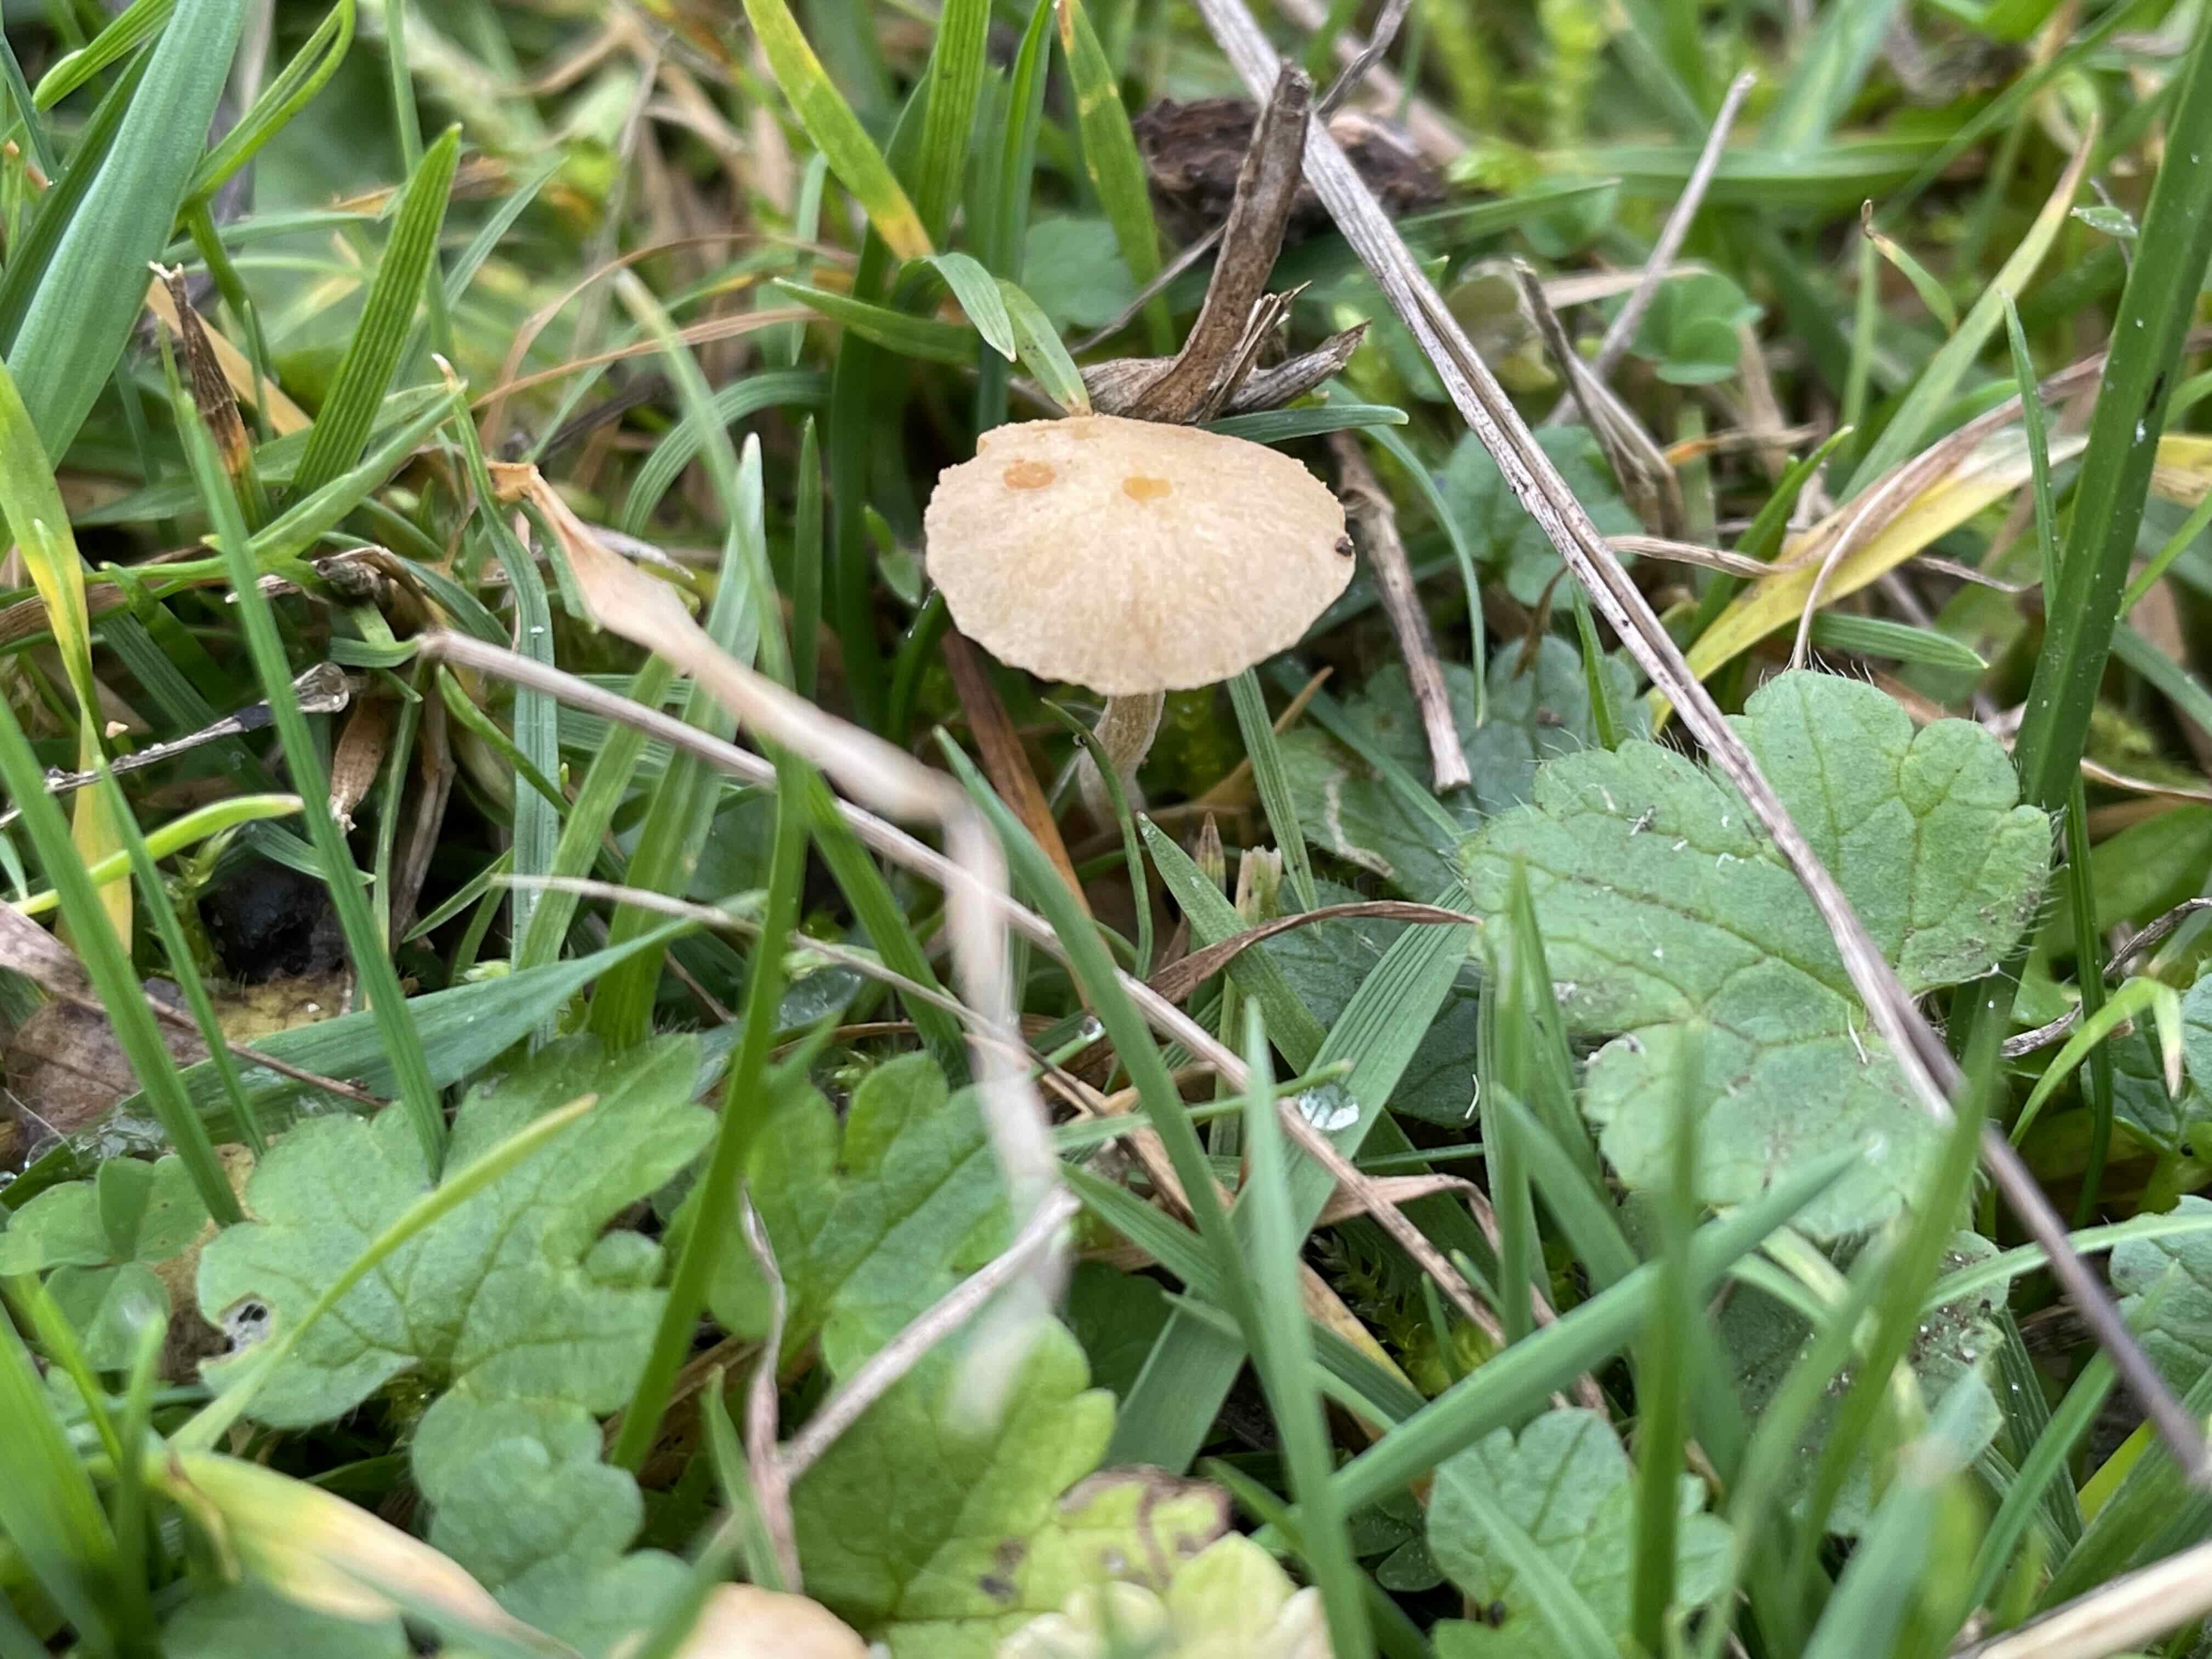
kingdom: Fungi
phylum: Basidiomycota
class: Agaricomycetes
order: Agaricales
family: Hymenogastraceae
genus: Galerina
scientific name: Galerina
